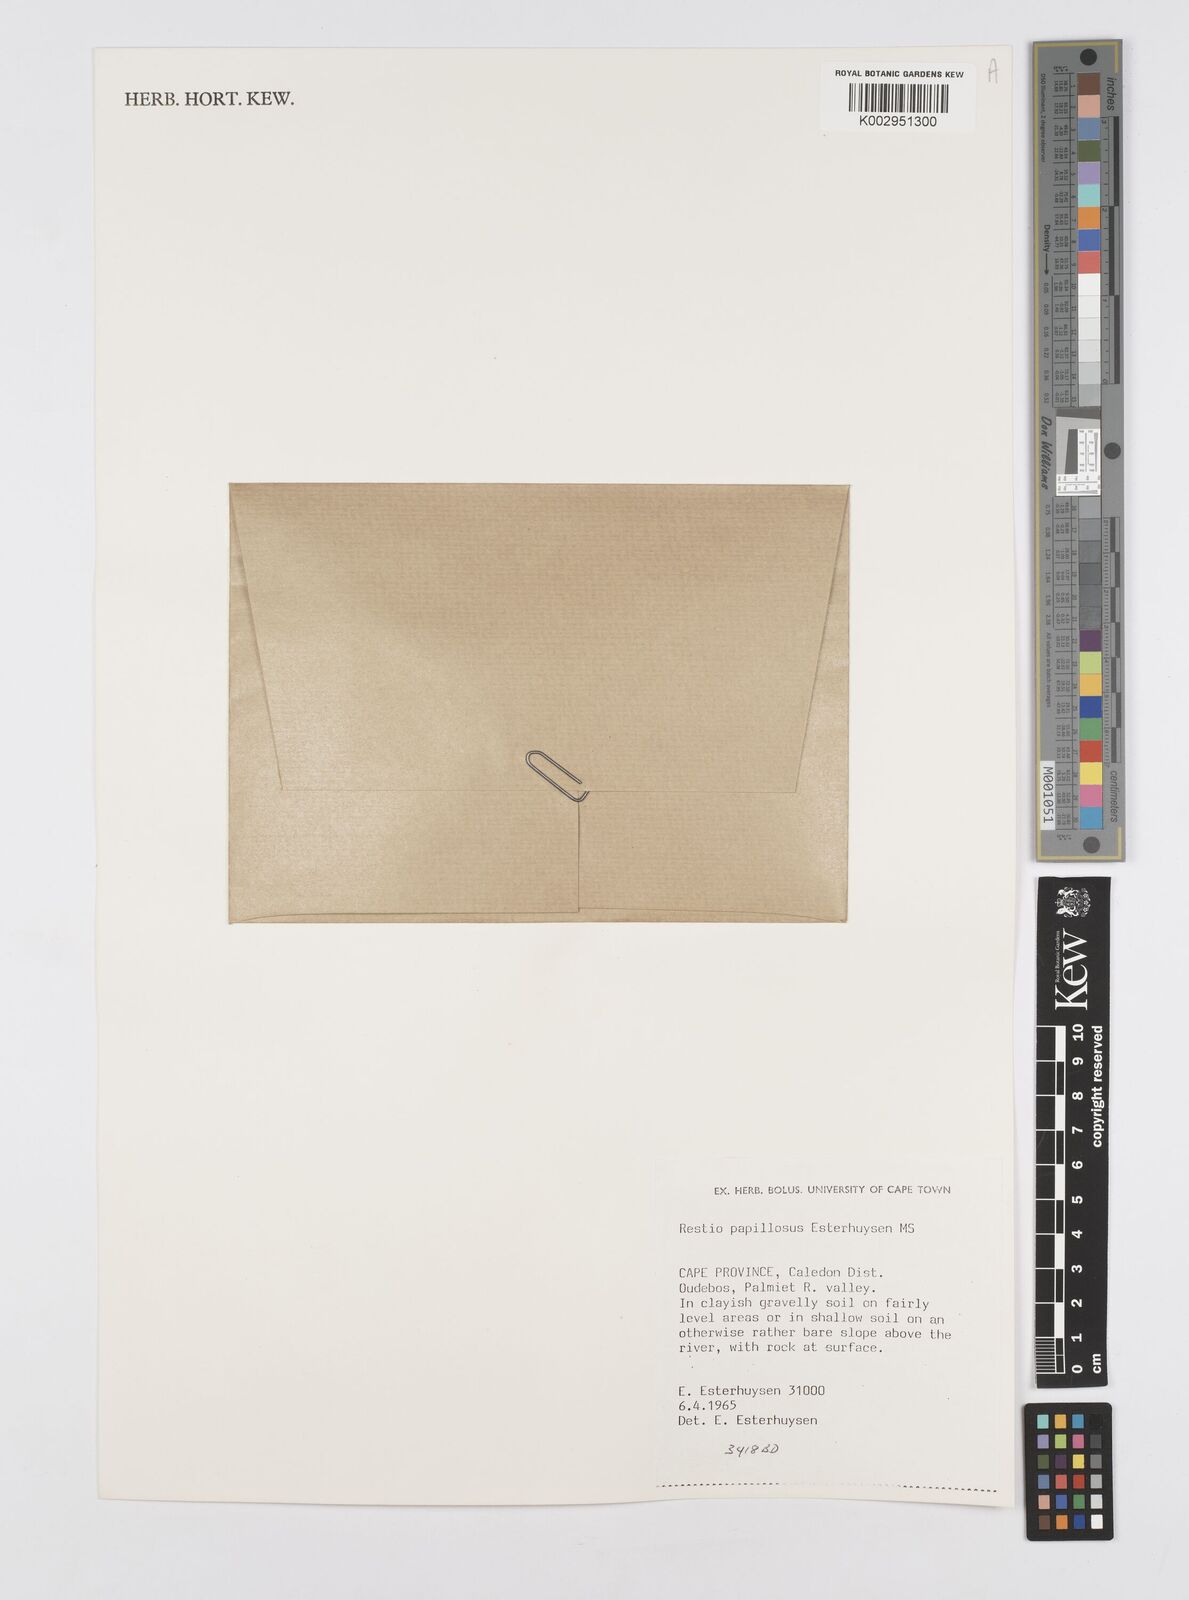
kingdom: Plantae
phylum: Tracheophyta
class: Liliopsida
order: Poales
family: Restionaceae
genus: Restio
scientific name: Restio papillosus
